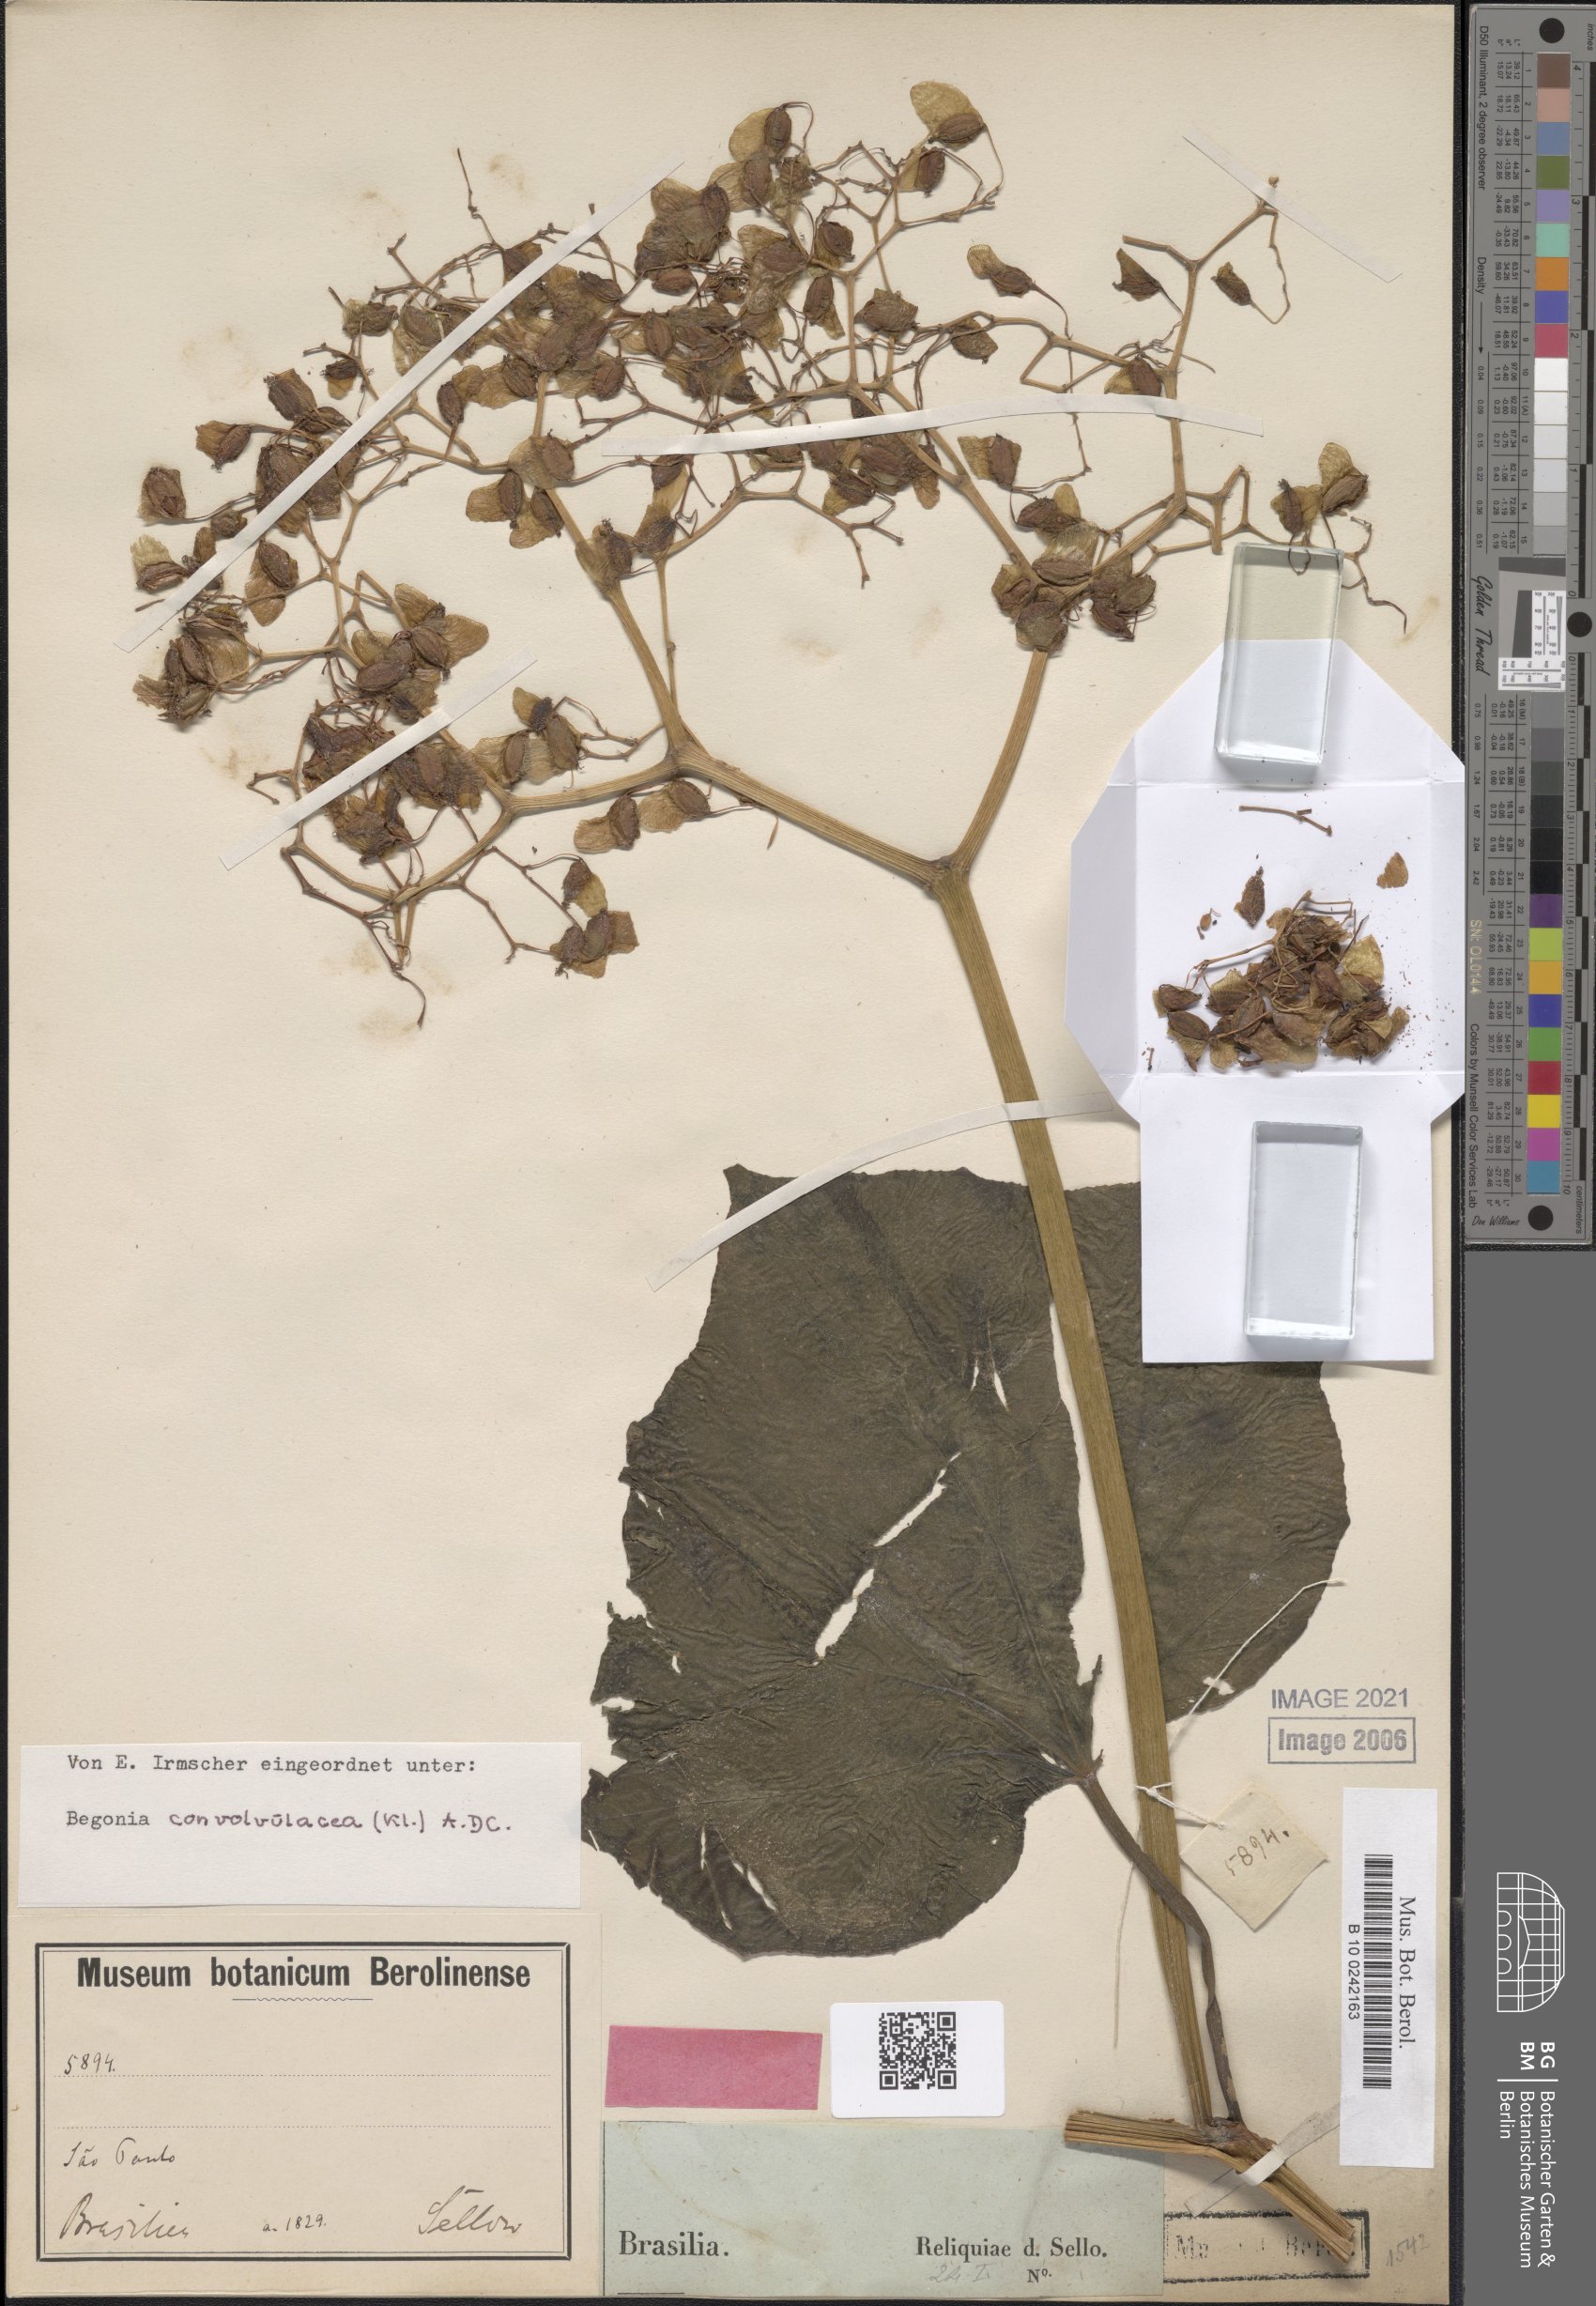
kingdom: Plantae
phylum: Tracheophyta
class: Magnoliopsida
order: Cucurbitales
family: Begoniaceae
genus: Begonia
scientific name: Begonia convolvulacea
